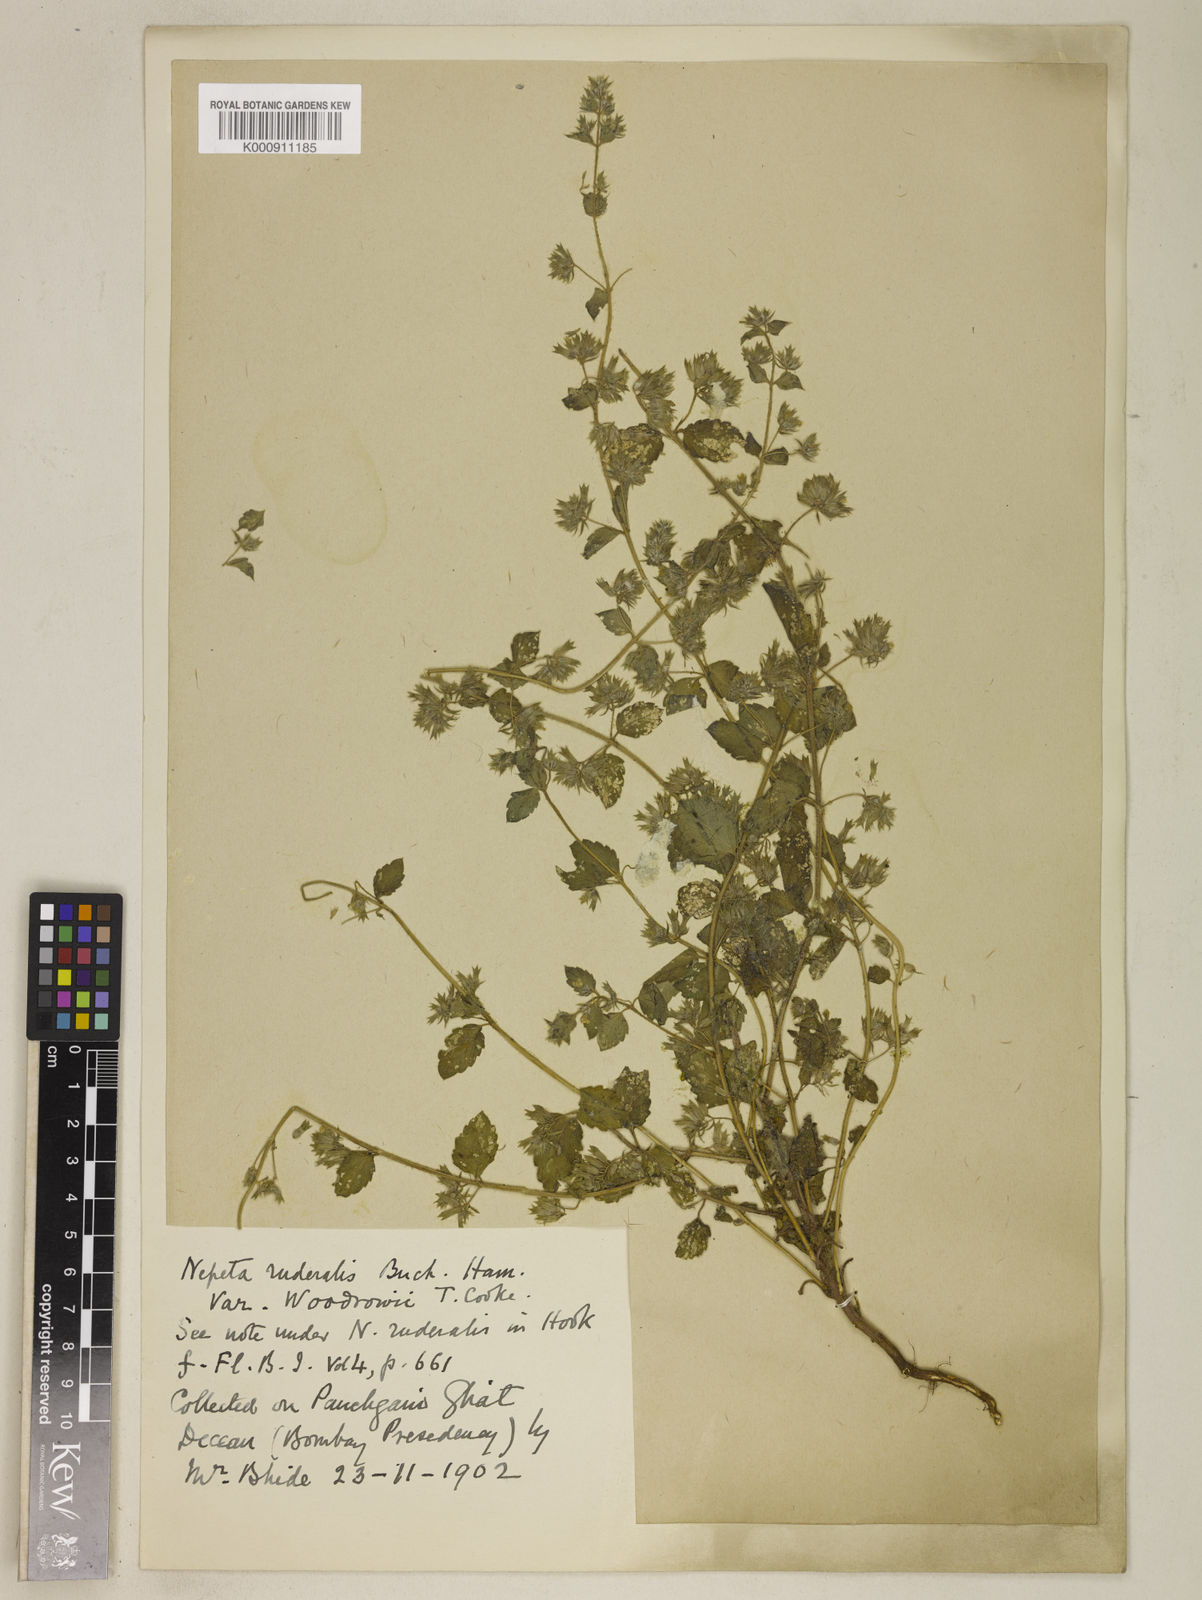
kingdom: Plantae
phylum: Tracheophyta
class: Magnoliopsida
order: Lamiales
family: Lamiaceae
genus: Nepeta
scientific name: Nepeta hindostana
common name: Indian catnip
